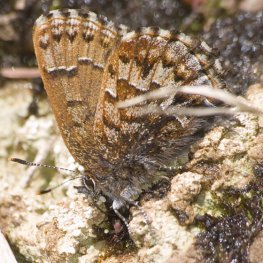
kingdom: Animalia
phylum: Arthropoda
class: Insecta
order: Lepidoptera
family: Lycaenidae
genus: Incisalia
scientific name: Incisalia niphon
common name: Eastern Pine Elfin
